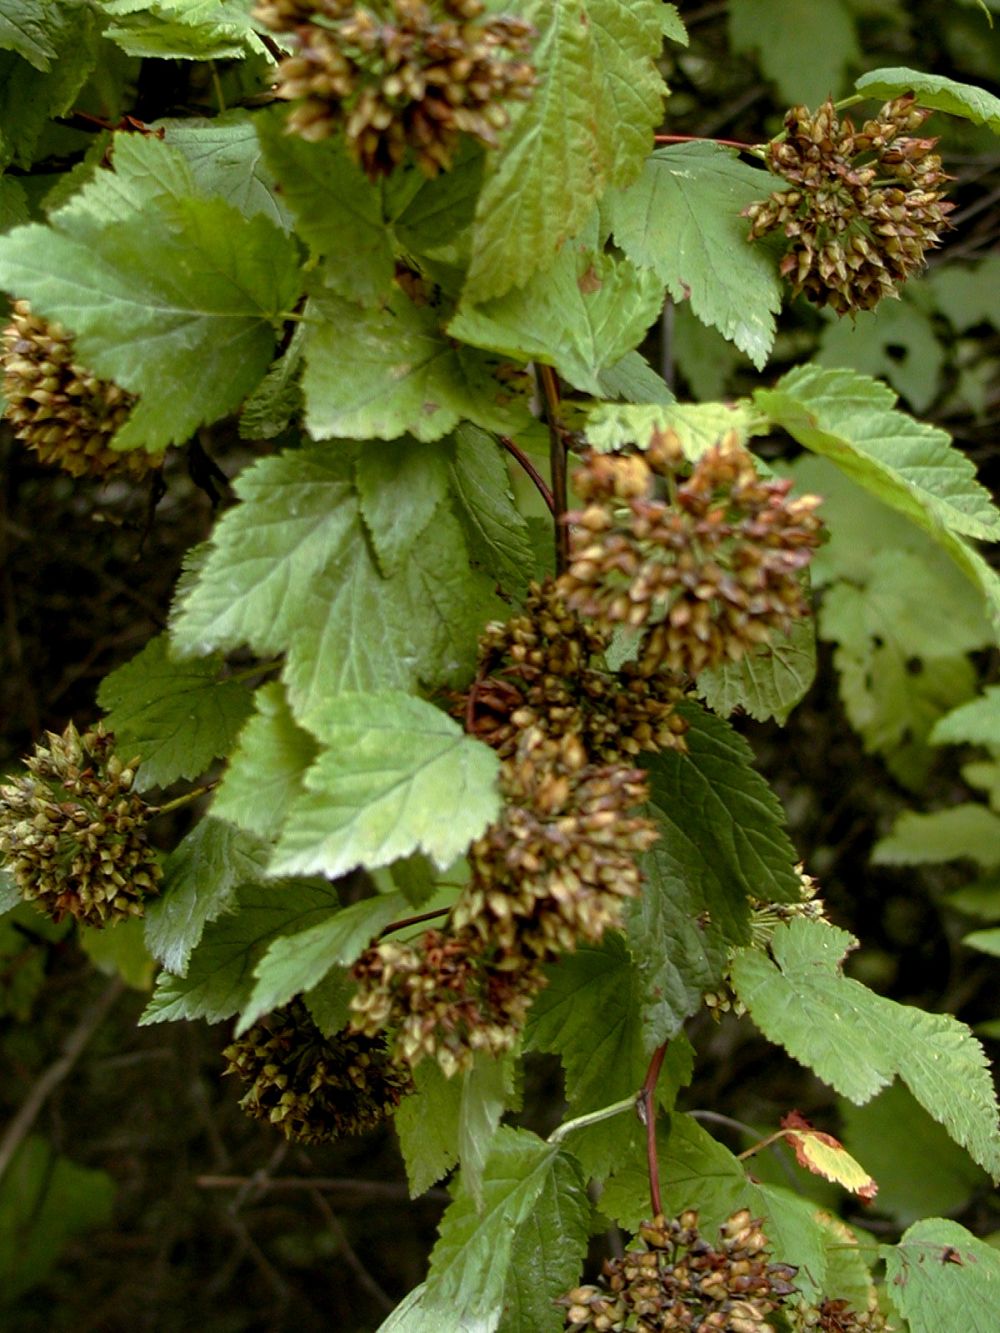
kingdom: Plantae
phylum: Tracheophyta
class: Magnoliopsida
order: Rosales
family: Rosaceae
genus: Physocarpus
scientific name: Physocarpus capitatus
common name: Pacific ninebark
